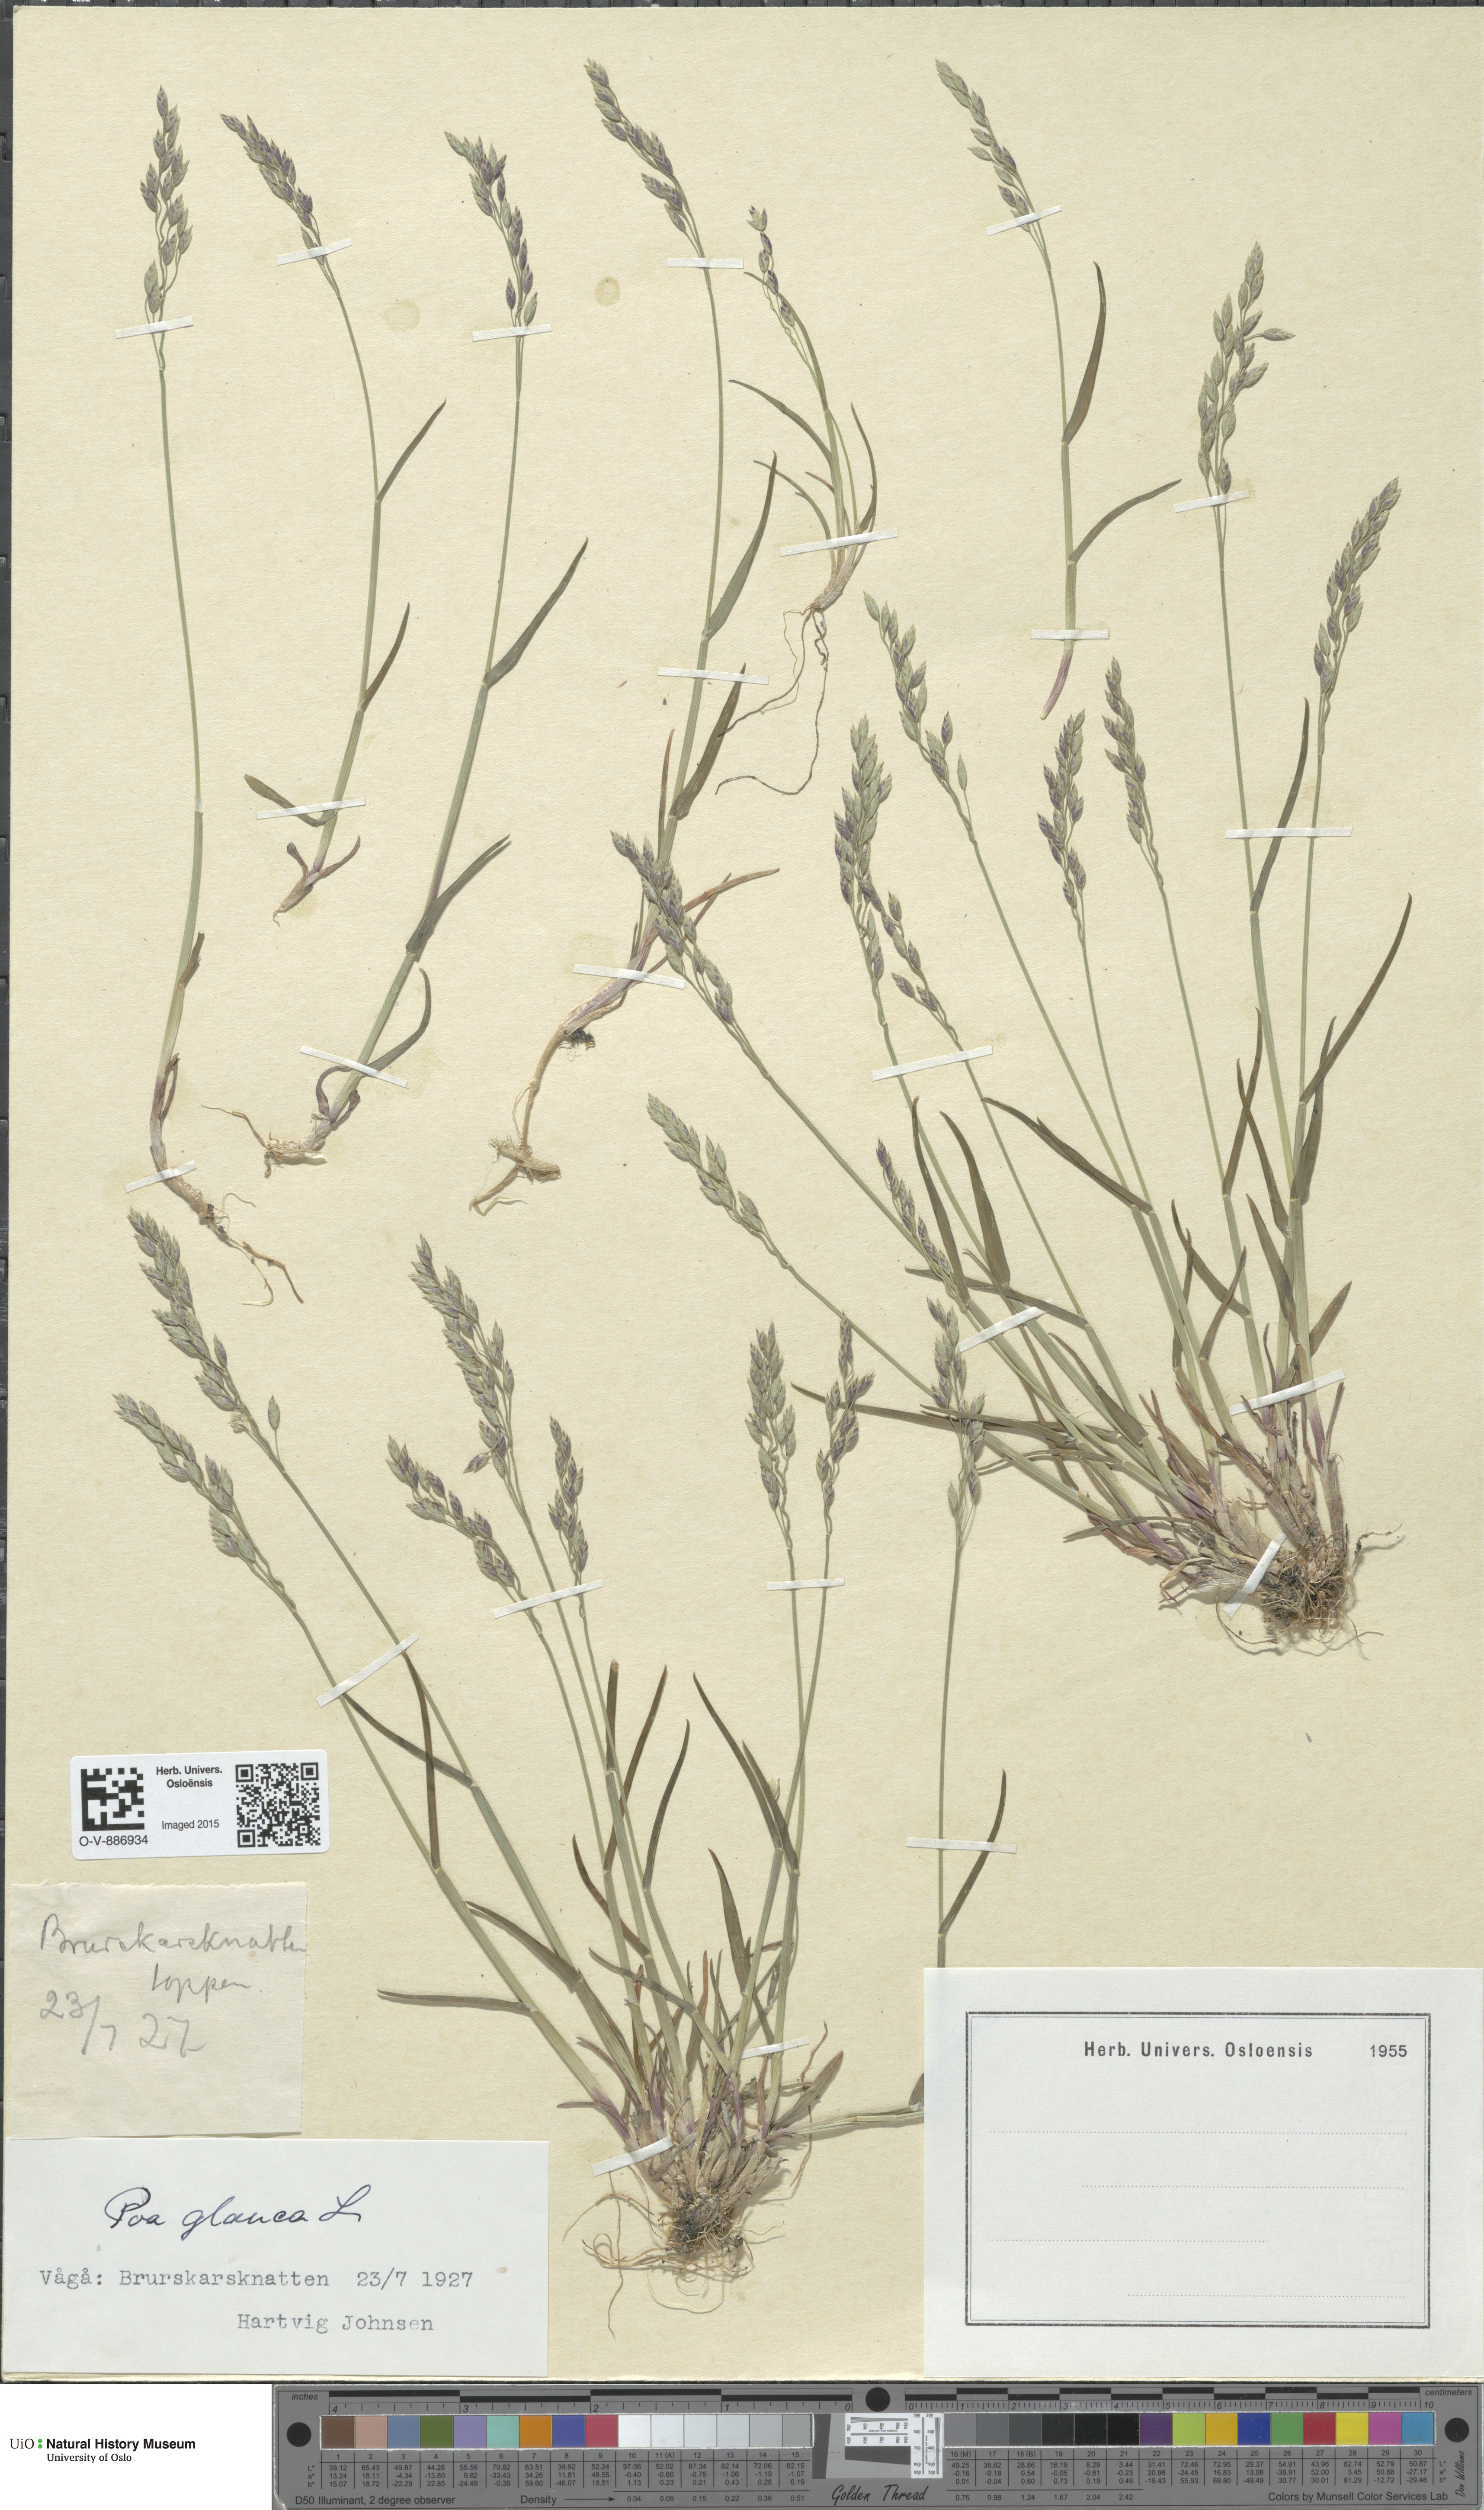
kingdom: Plantae
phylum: Tracheophyta
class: Liliopsida
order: Poales
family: Poaceae
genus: Poa
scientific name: Poa glauca
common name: Glaucous bluegrass
